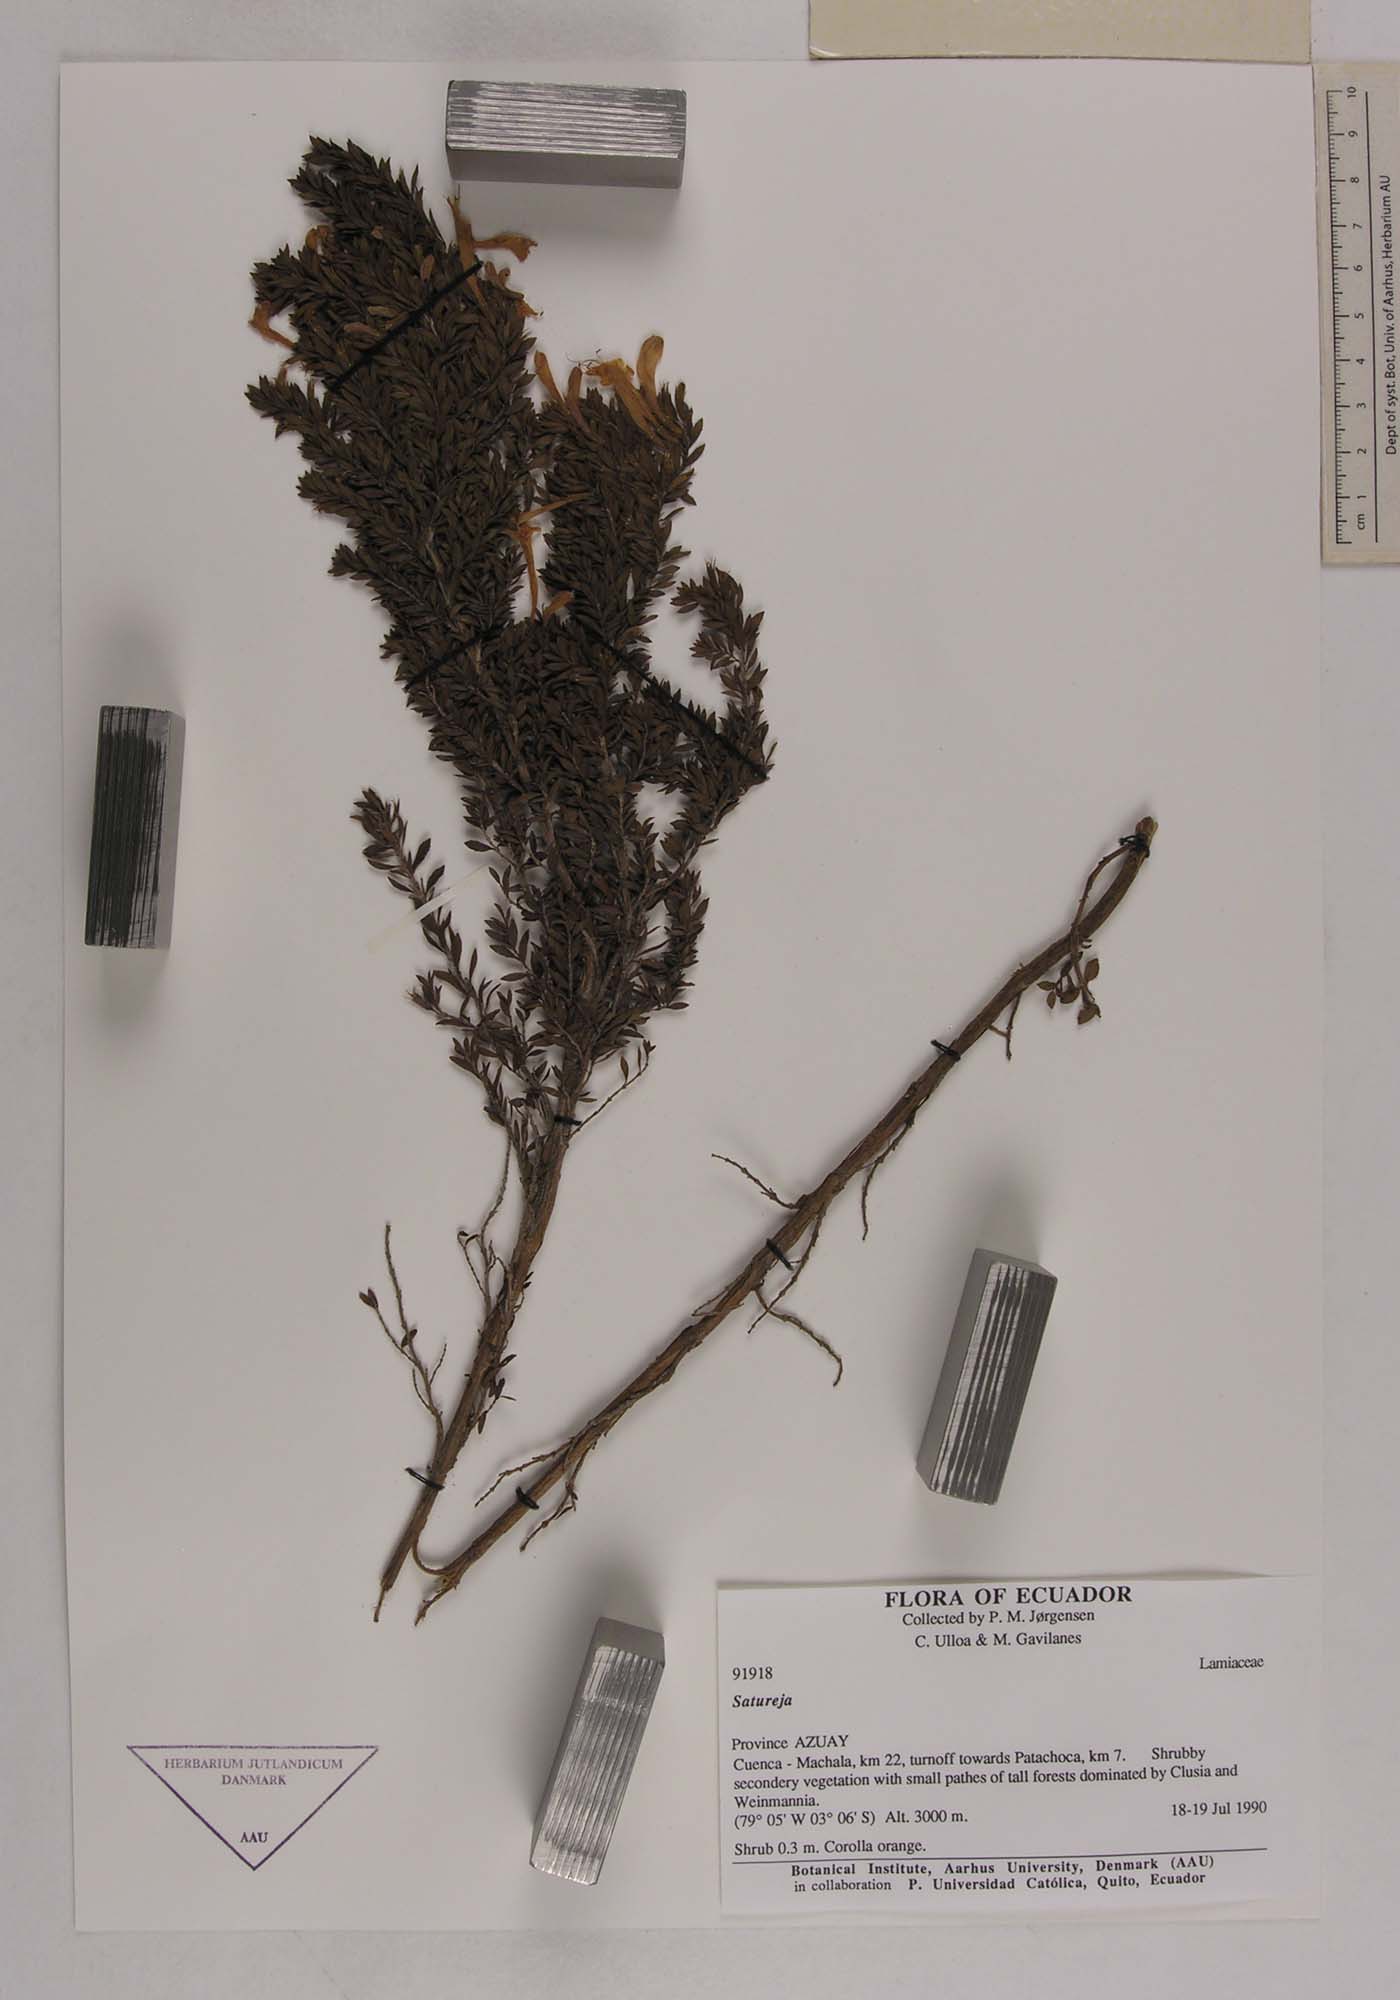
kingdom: Plantae
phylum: Tracheophyta
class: Magnoliopsida
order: Lamiales
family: Lamiaceae
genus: Clinopodium
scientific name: Clinopodium taxifolium
